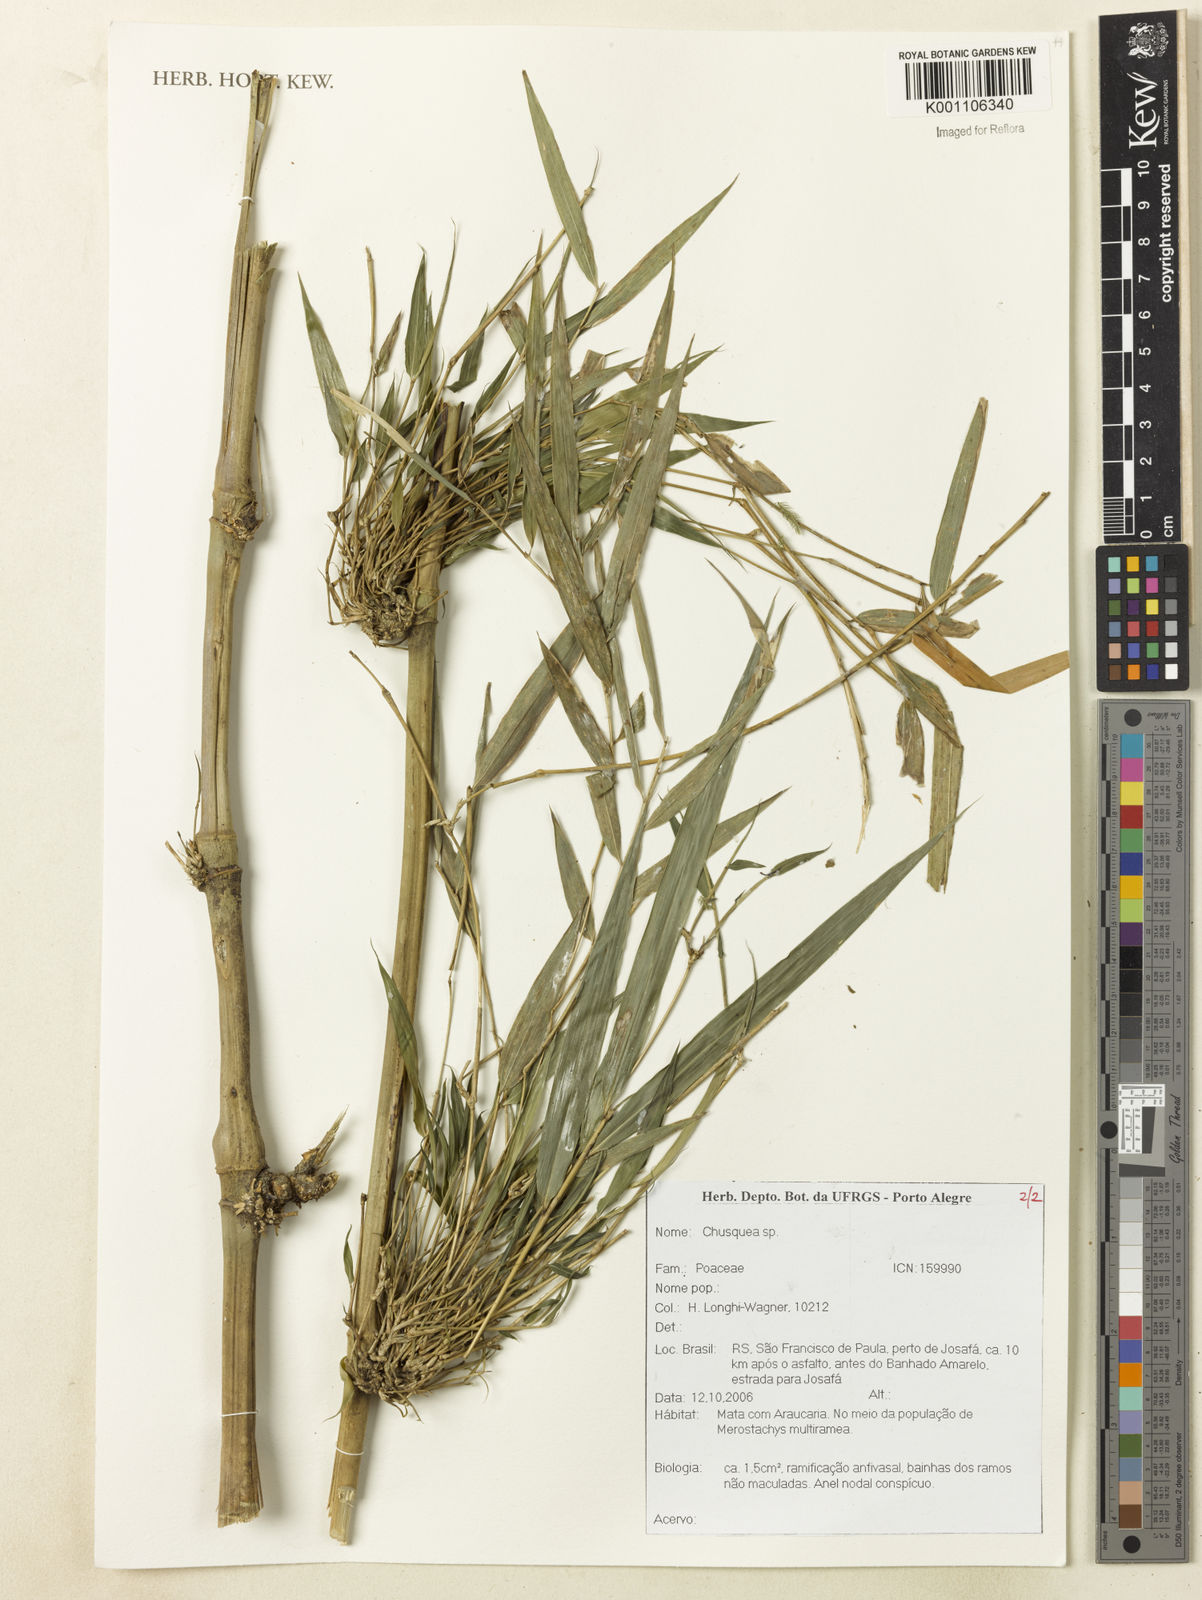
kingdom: Plantae
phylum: Tracheophyta
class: Liliopsida
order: Poales
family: Poaceae
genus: Chusquea
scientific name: Chusquea
